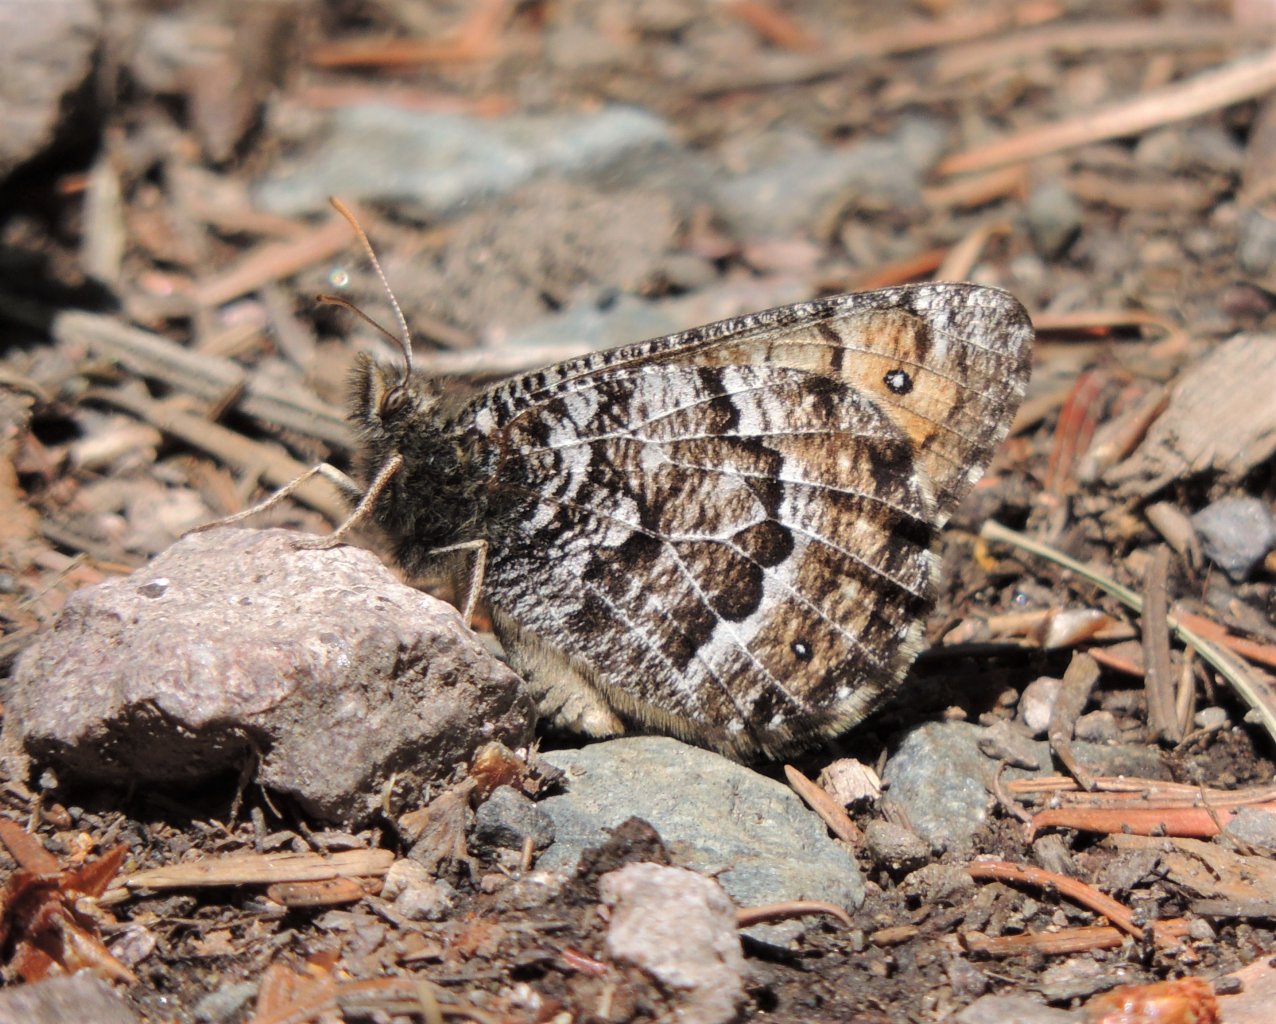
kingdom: Animalia
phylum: Arthropoda
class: Insecta
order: Lepidoptera
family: Nymphalidae
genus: Oeneis
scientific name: Oeneis chryxus
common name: Chryxus Arctic
